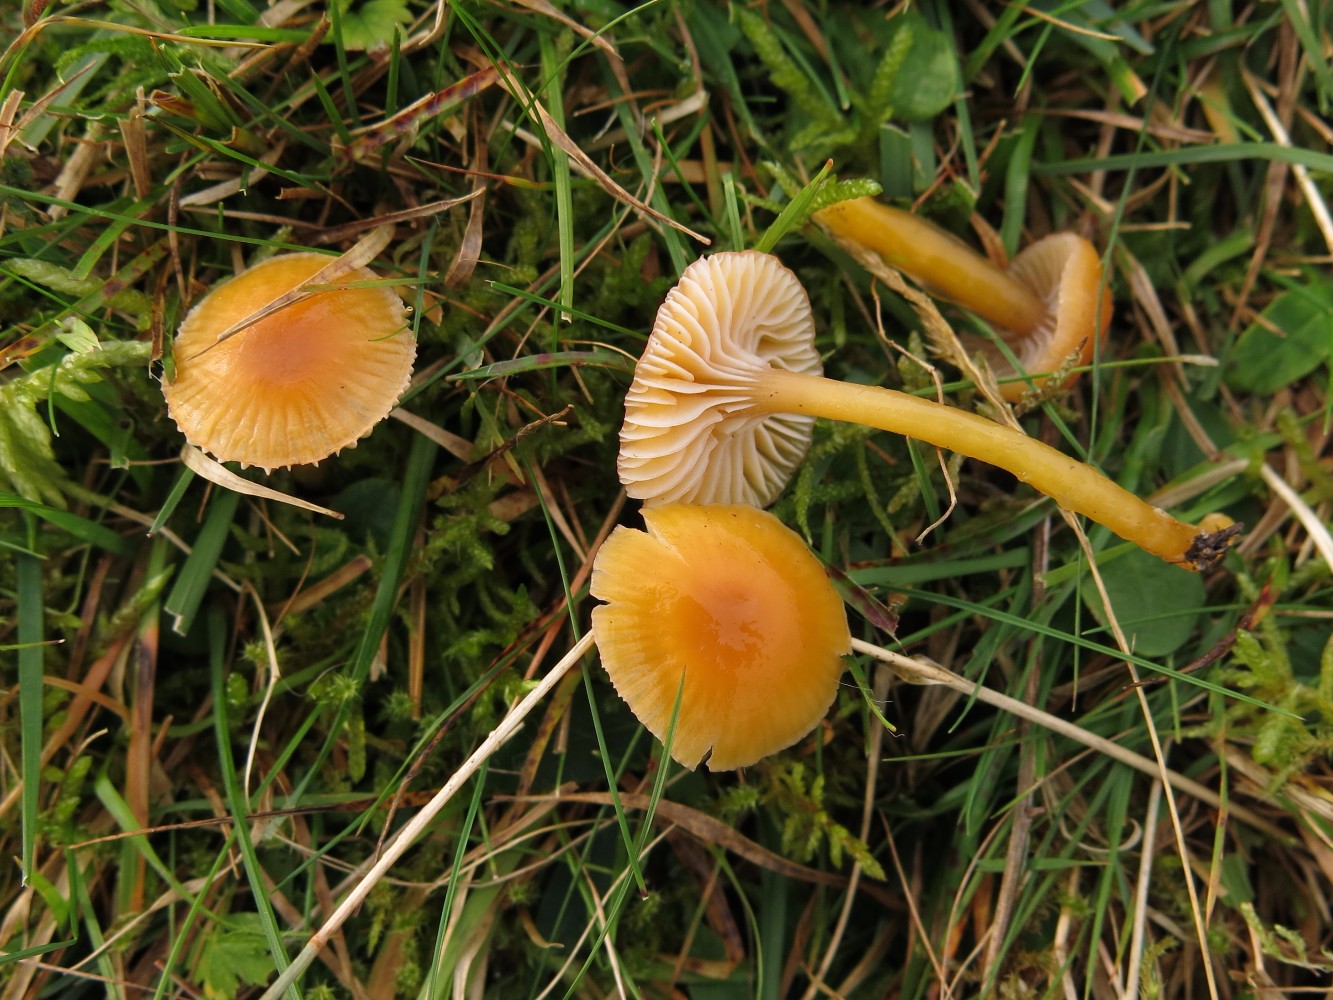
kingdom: Fungi
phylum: Basidiomycota
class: Agaricomycetes
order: Agaricales
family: Hygrophoraceae
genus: Gliophorus
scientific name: Gliophorus laetus
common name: brusk-vokshat
